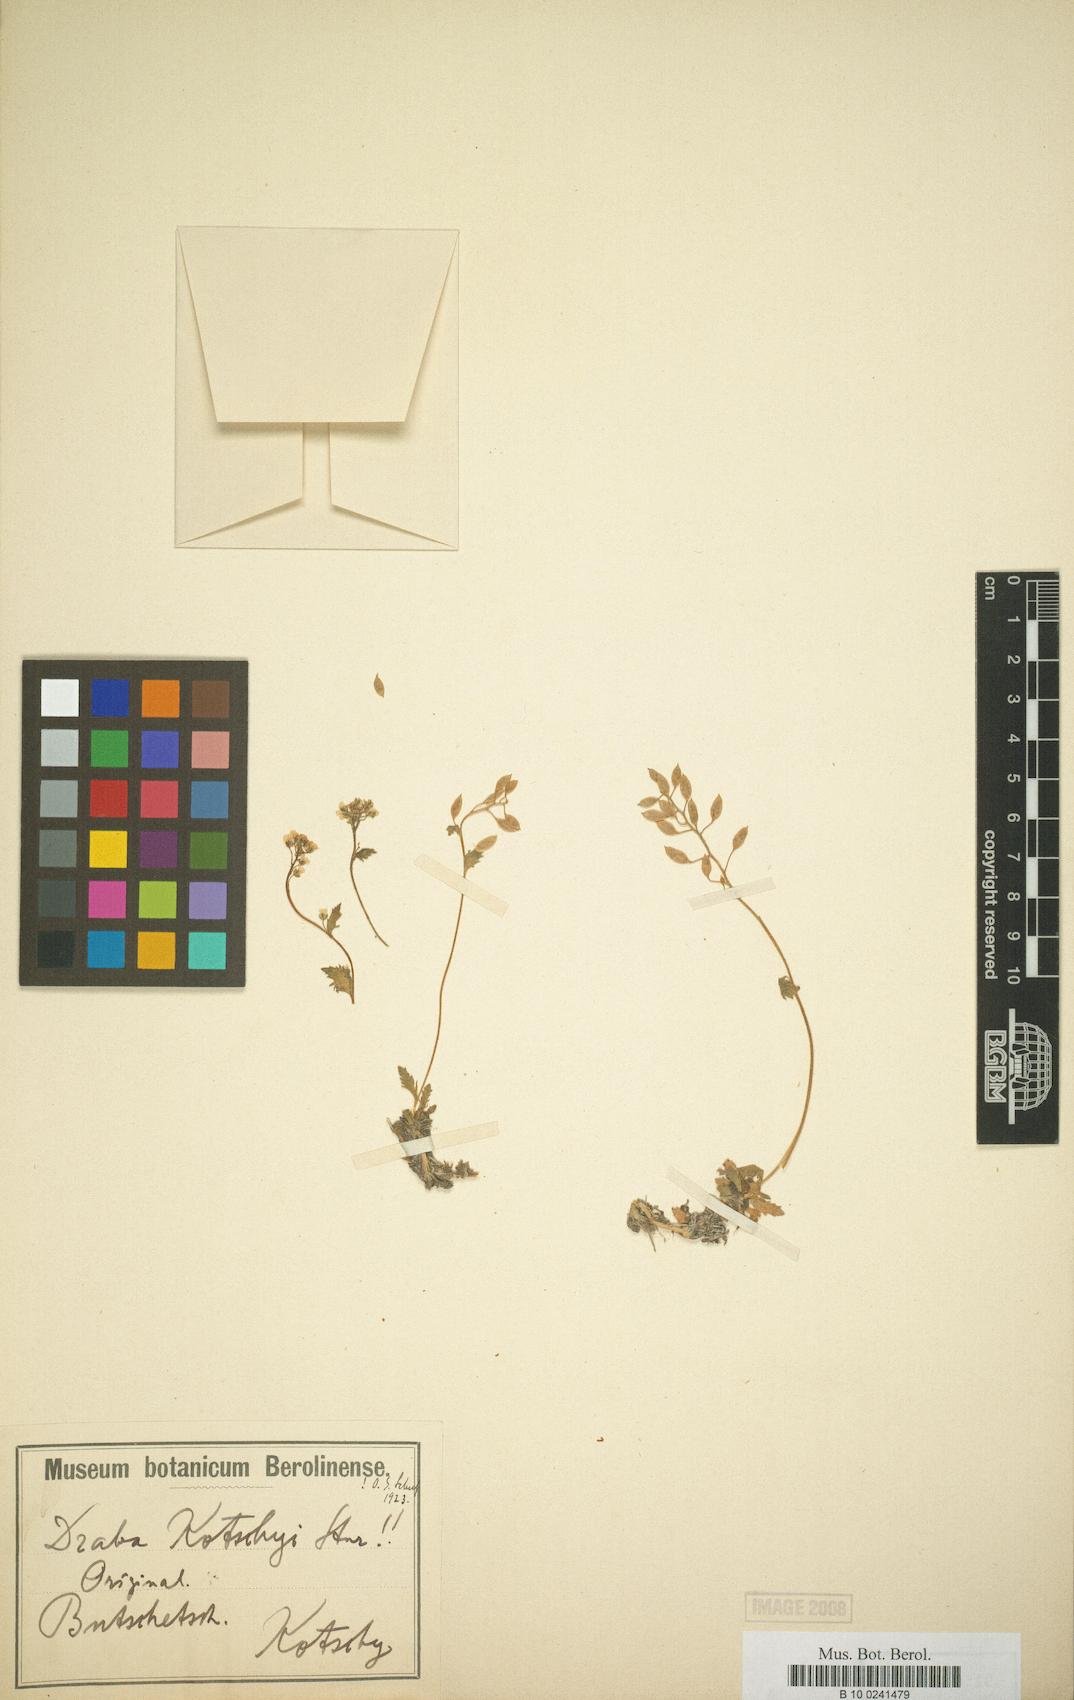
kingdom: Plantae
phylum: Tracheophyta
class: Magnoliopsida
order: Brassicales
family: Brassicaceae
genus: Draba
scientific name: Draba kotschyi
